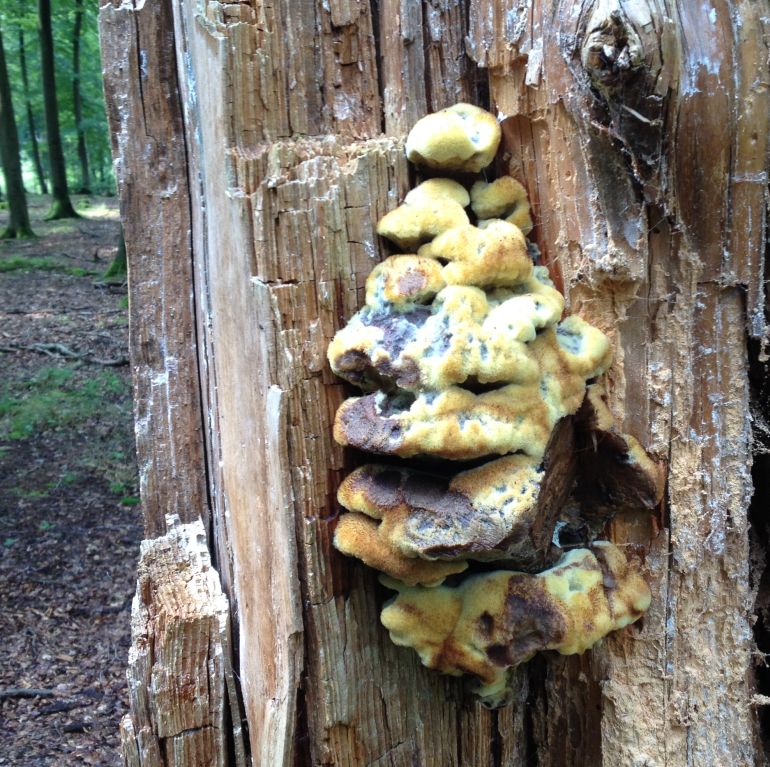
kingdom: Fungi
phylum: Basidiomycota
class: Agaricomycetes
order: Polyporales
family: Laetiporaceae
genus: Phaeolus
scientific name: Phaeolus schweinitzii
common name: brunporesvamp
